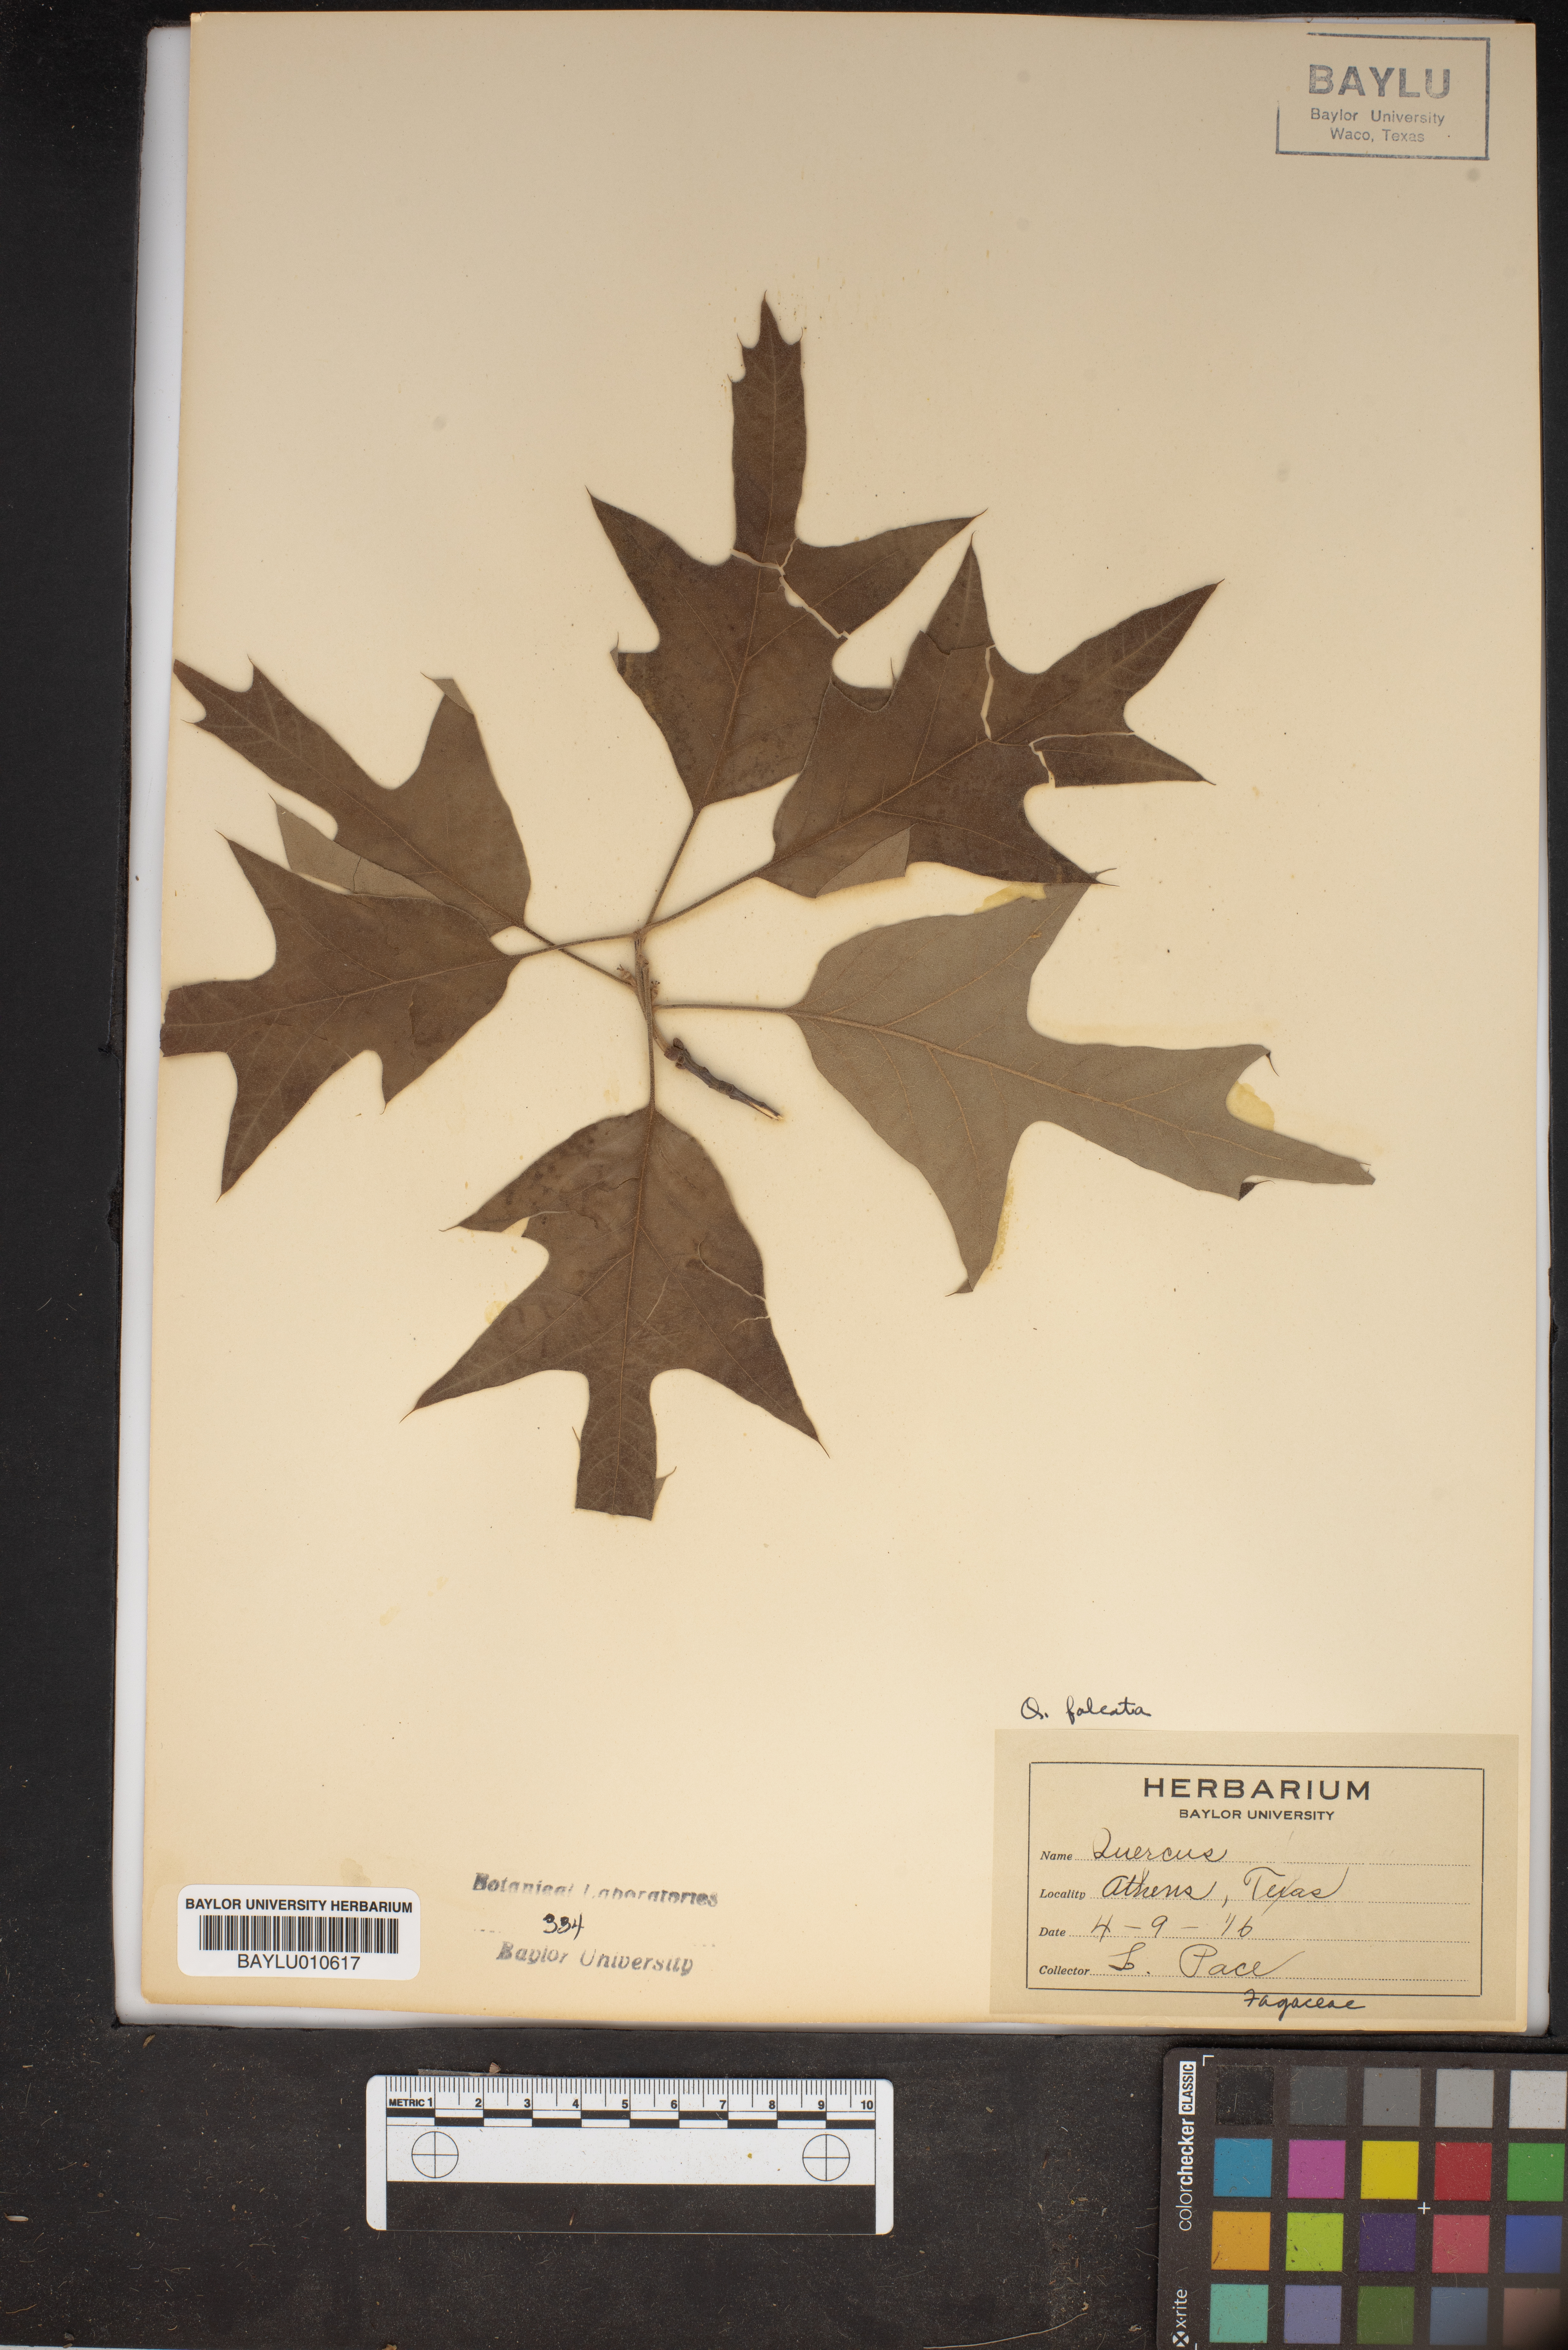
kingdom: Plantae
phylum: Tracheophyta
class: Magnoliopsida
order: Fagales
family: Fagaceae
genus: Quercus
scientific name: Quercus falcata
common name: Southern red oak
